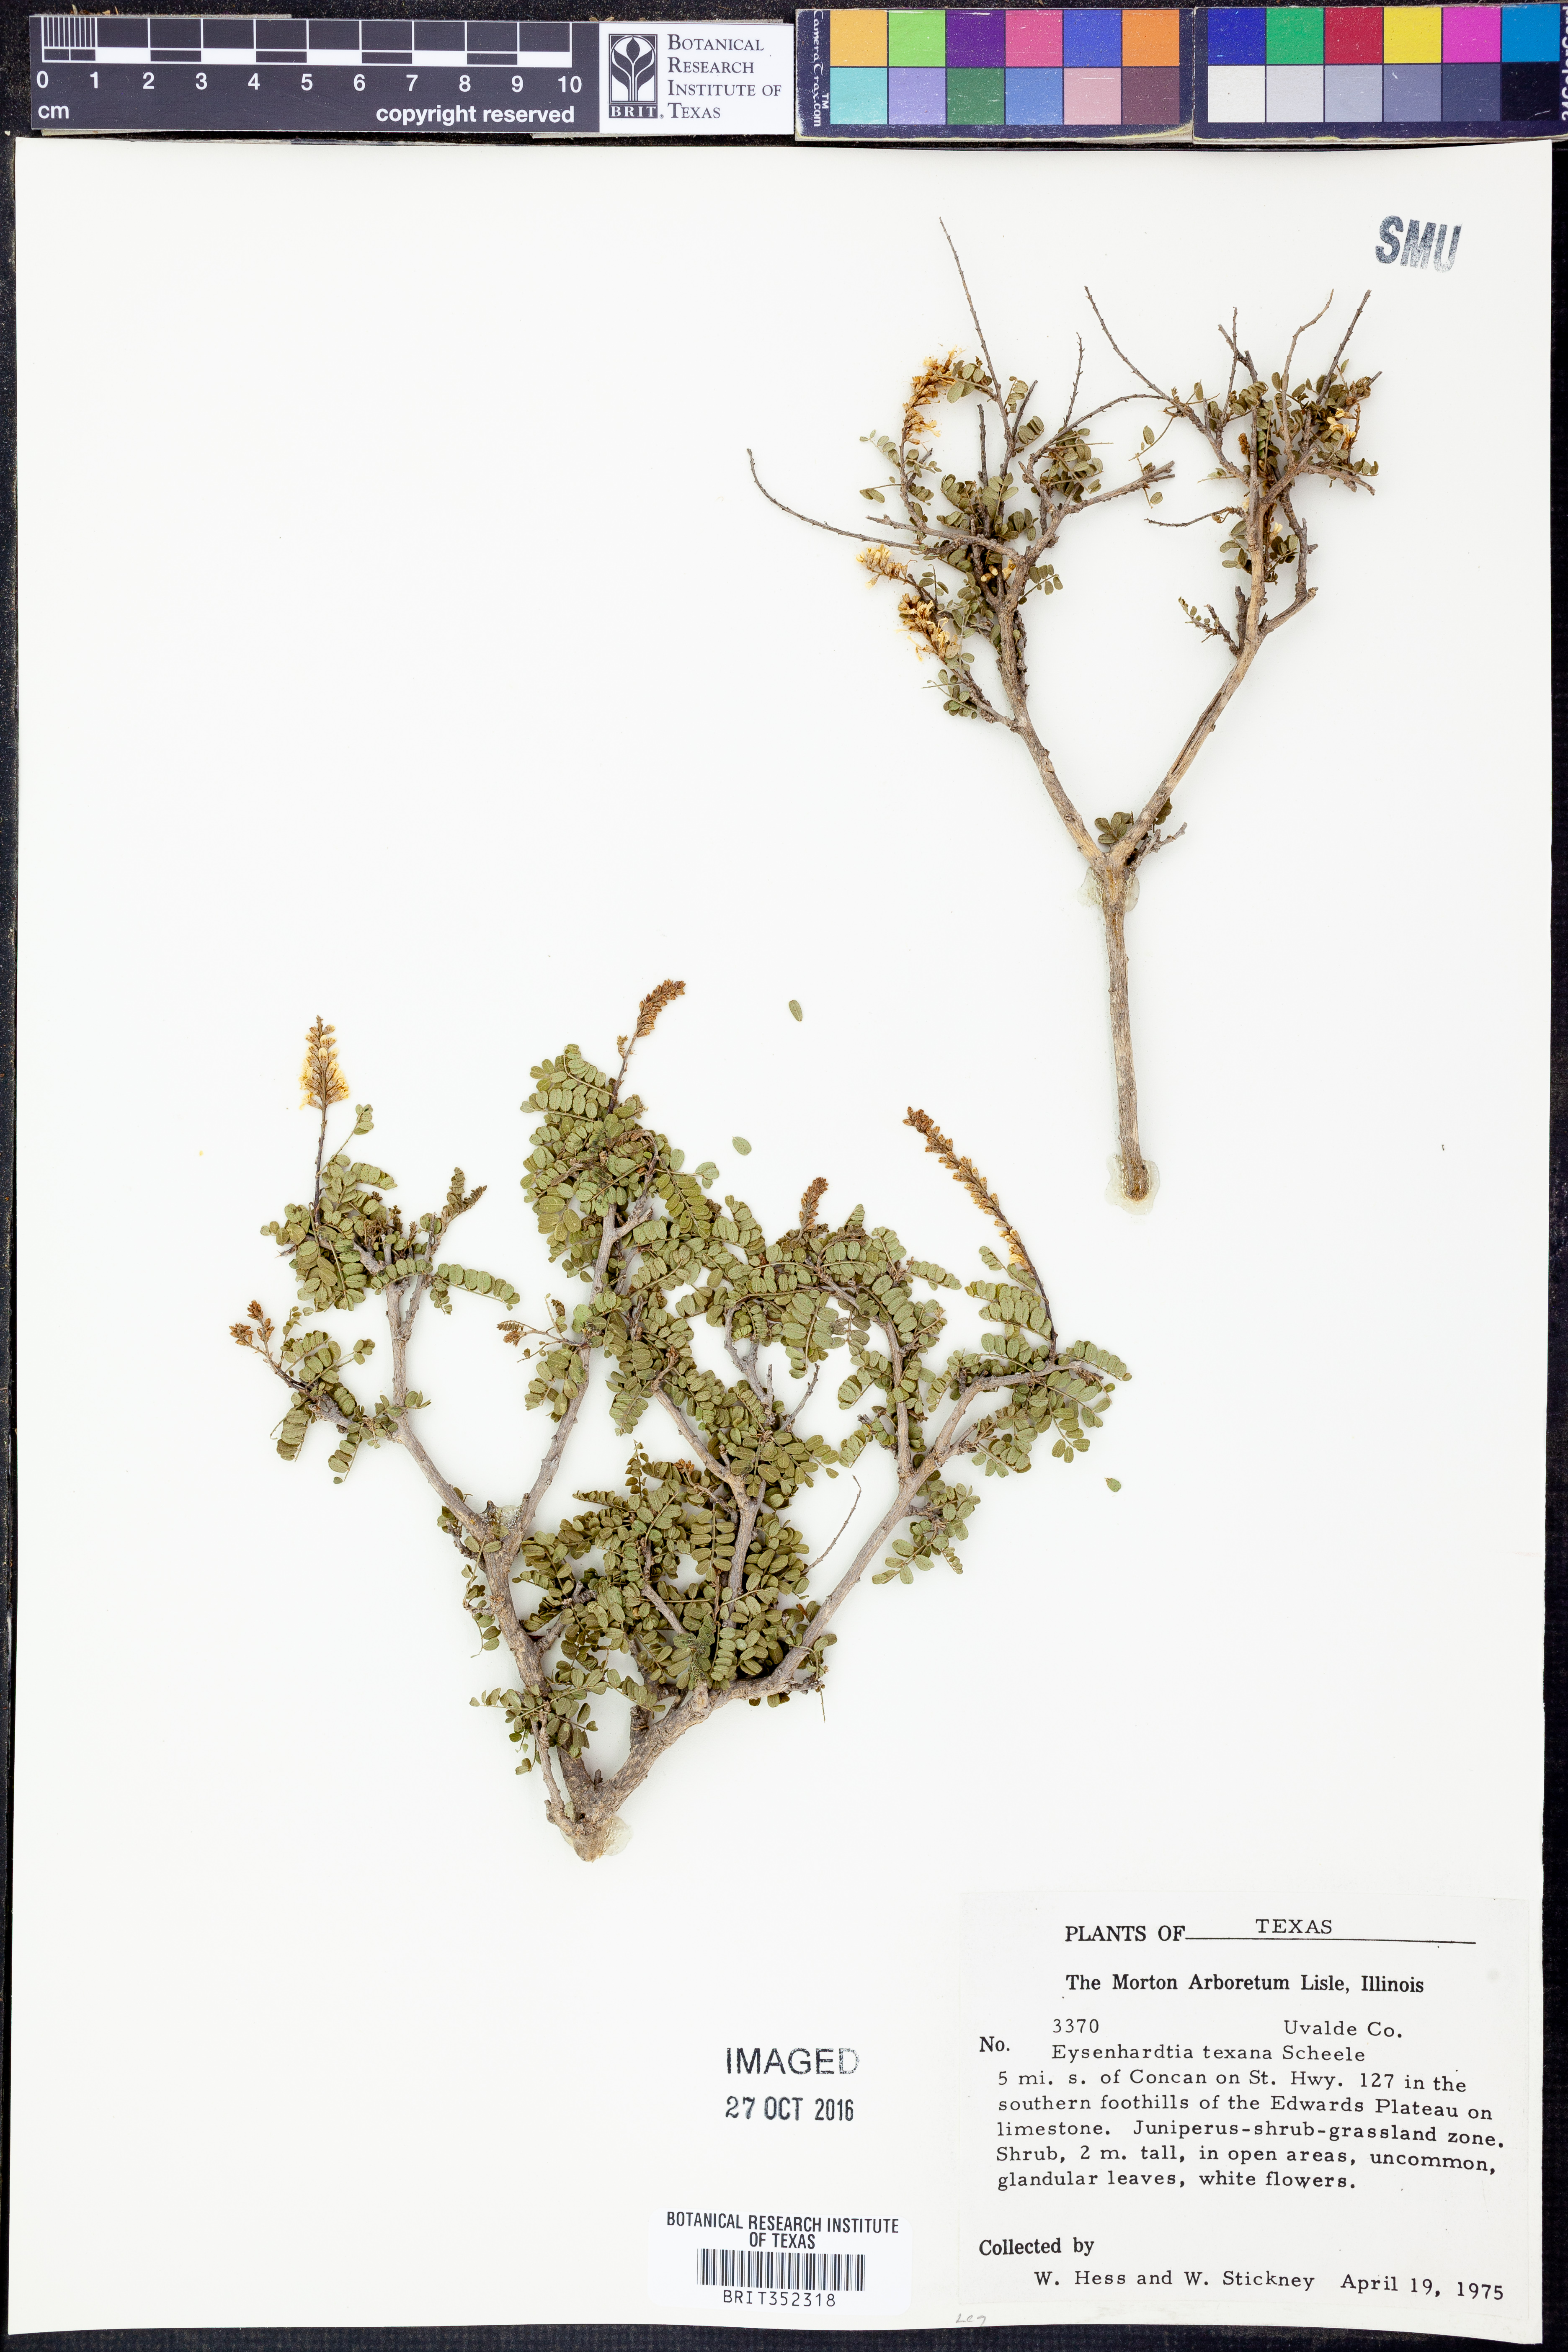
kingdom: Plantae
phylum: Tracheophyta
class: Magnoliopsida
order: Fabales
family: Fabaceae
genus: Eysenhardtia
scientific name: Eysenhardtia texana
